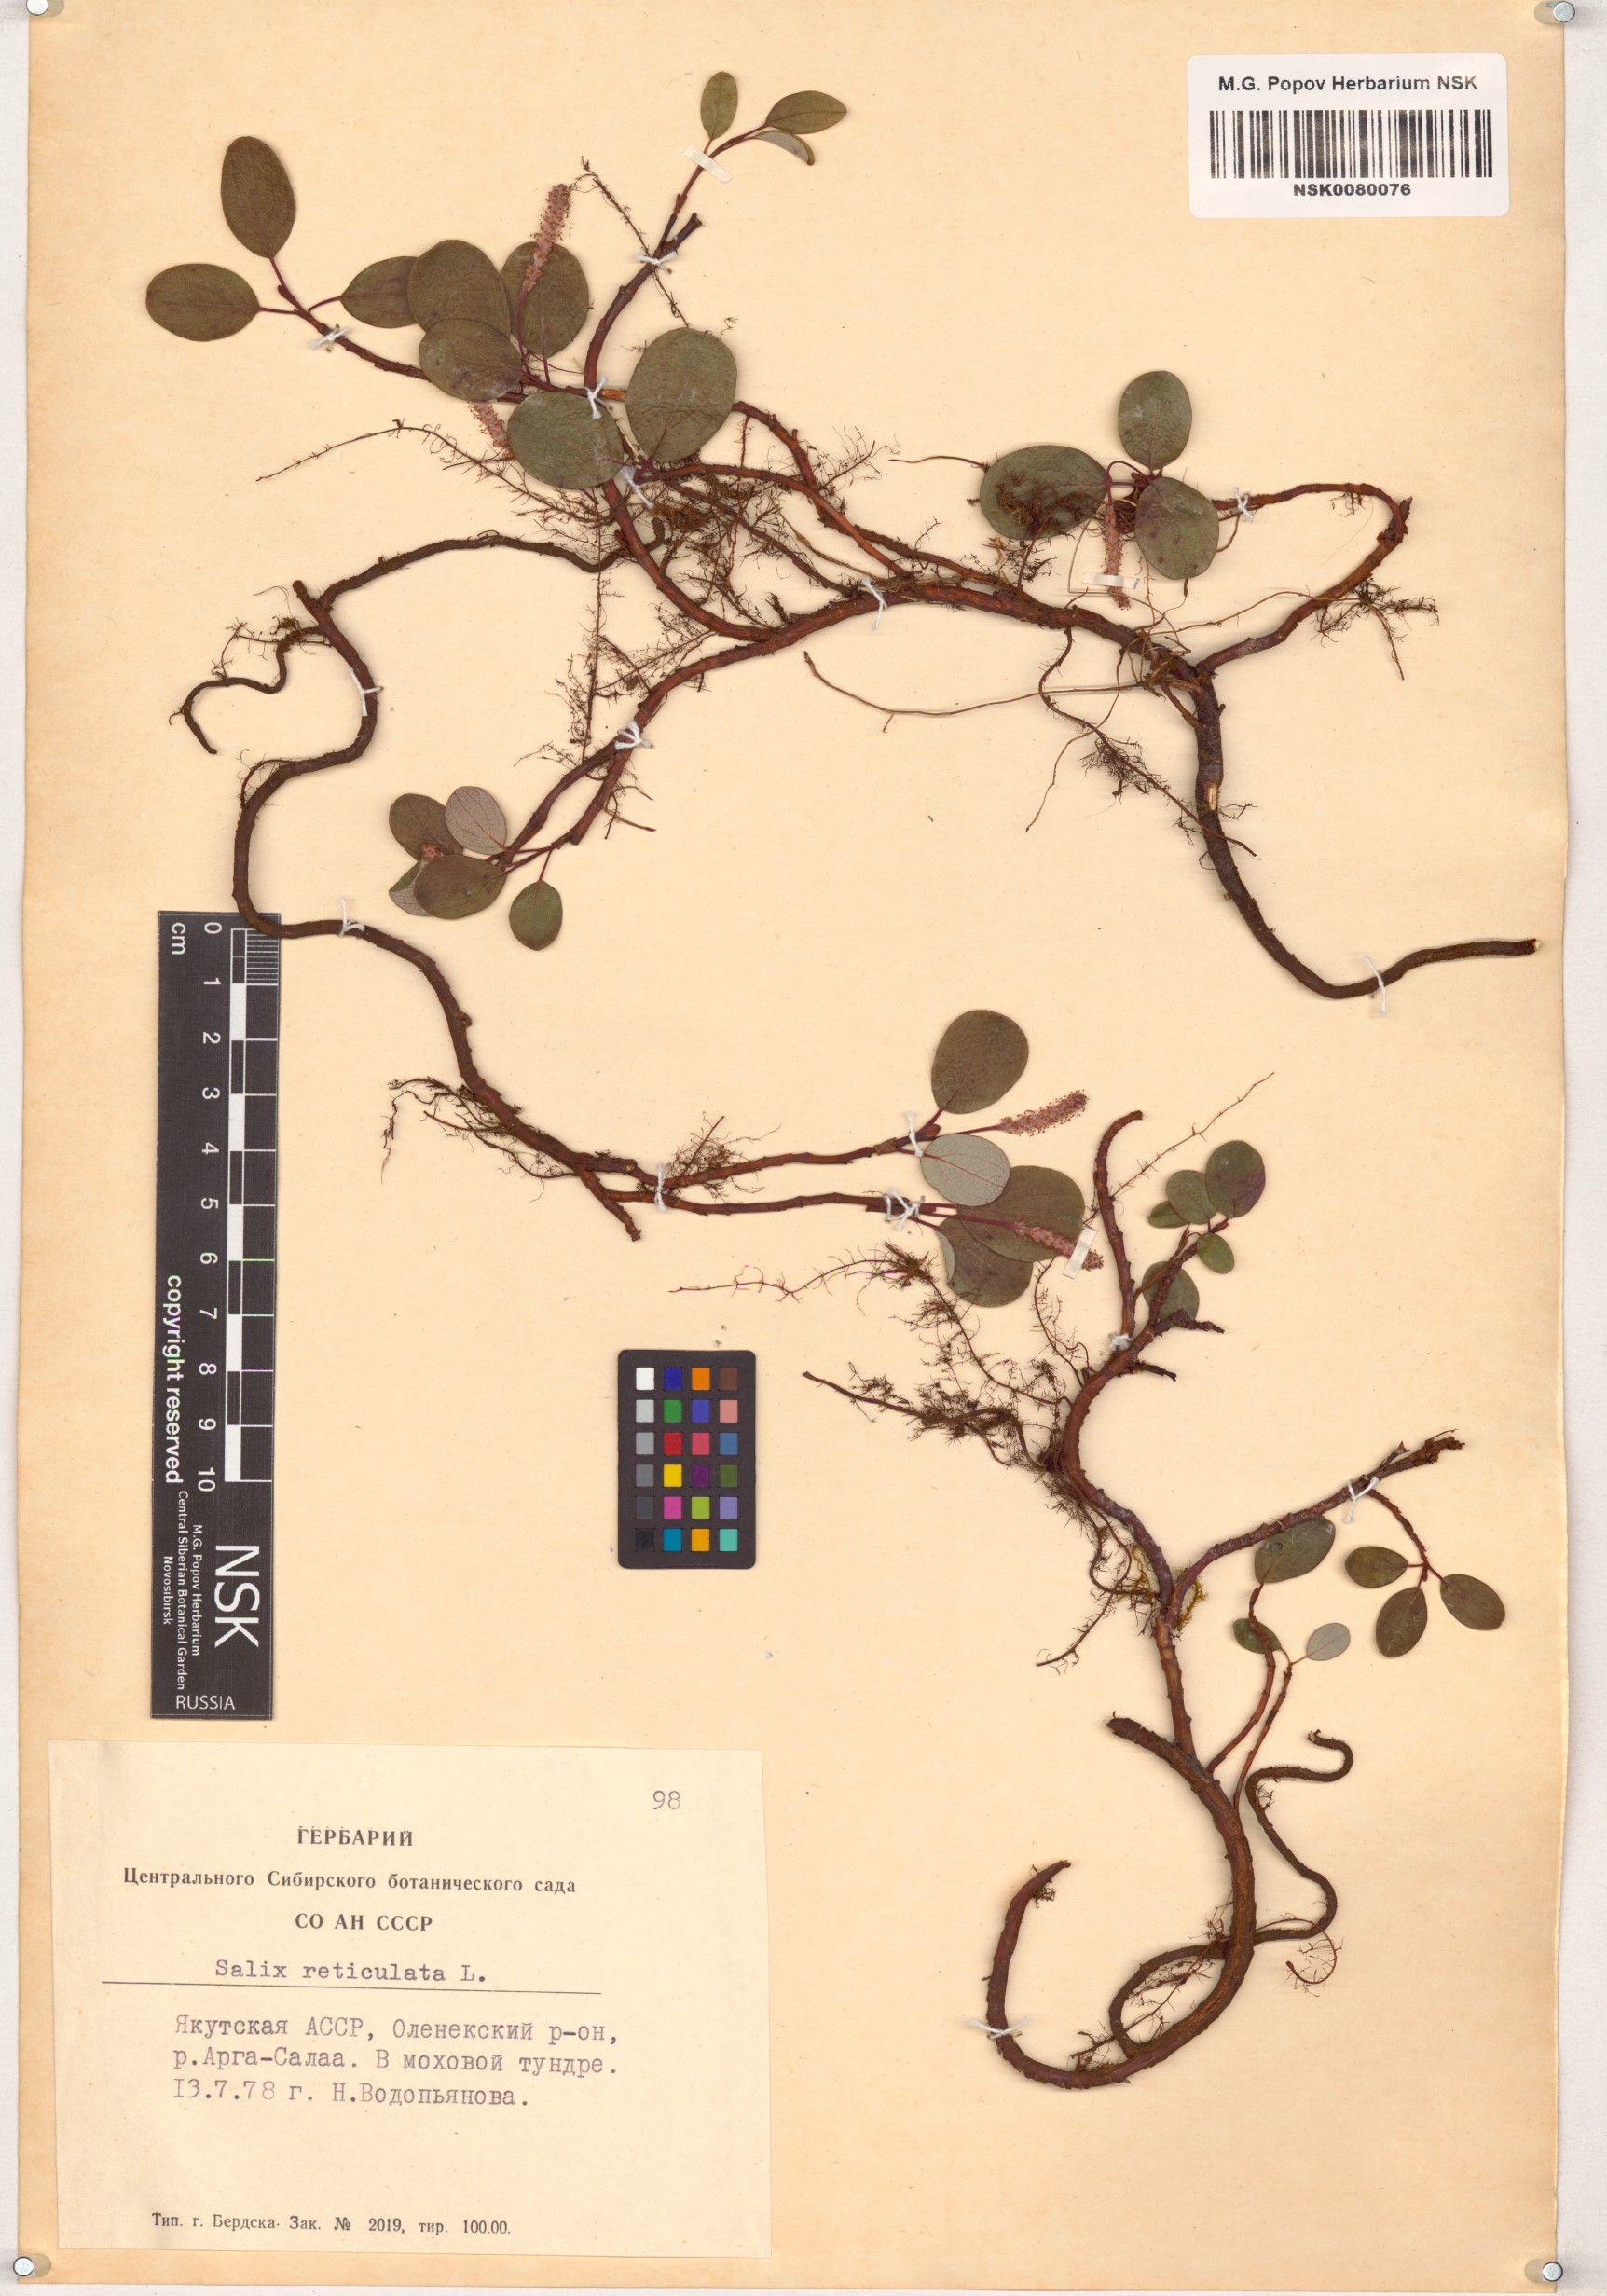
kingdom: Plantae
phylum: Tracheophyta
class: Magnoliopsida
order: Malpighiales
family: Salicaceae
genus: Salix
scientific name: Salix reticulata
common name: Net-leaved willow
